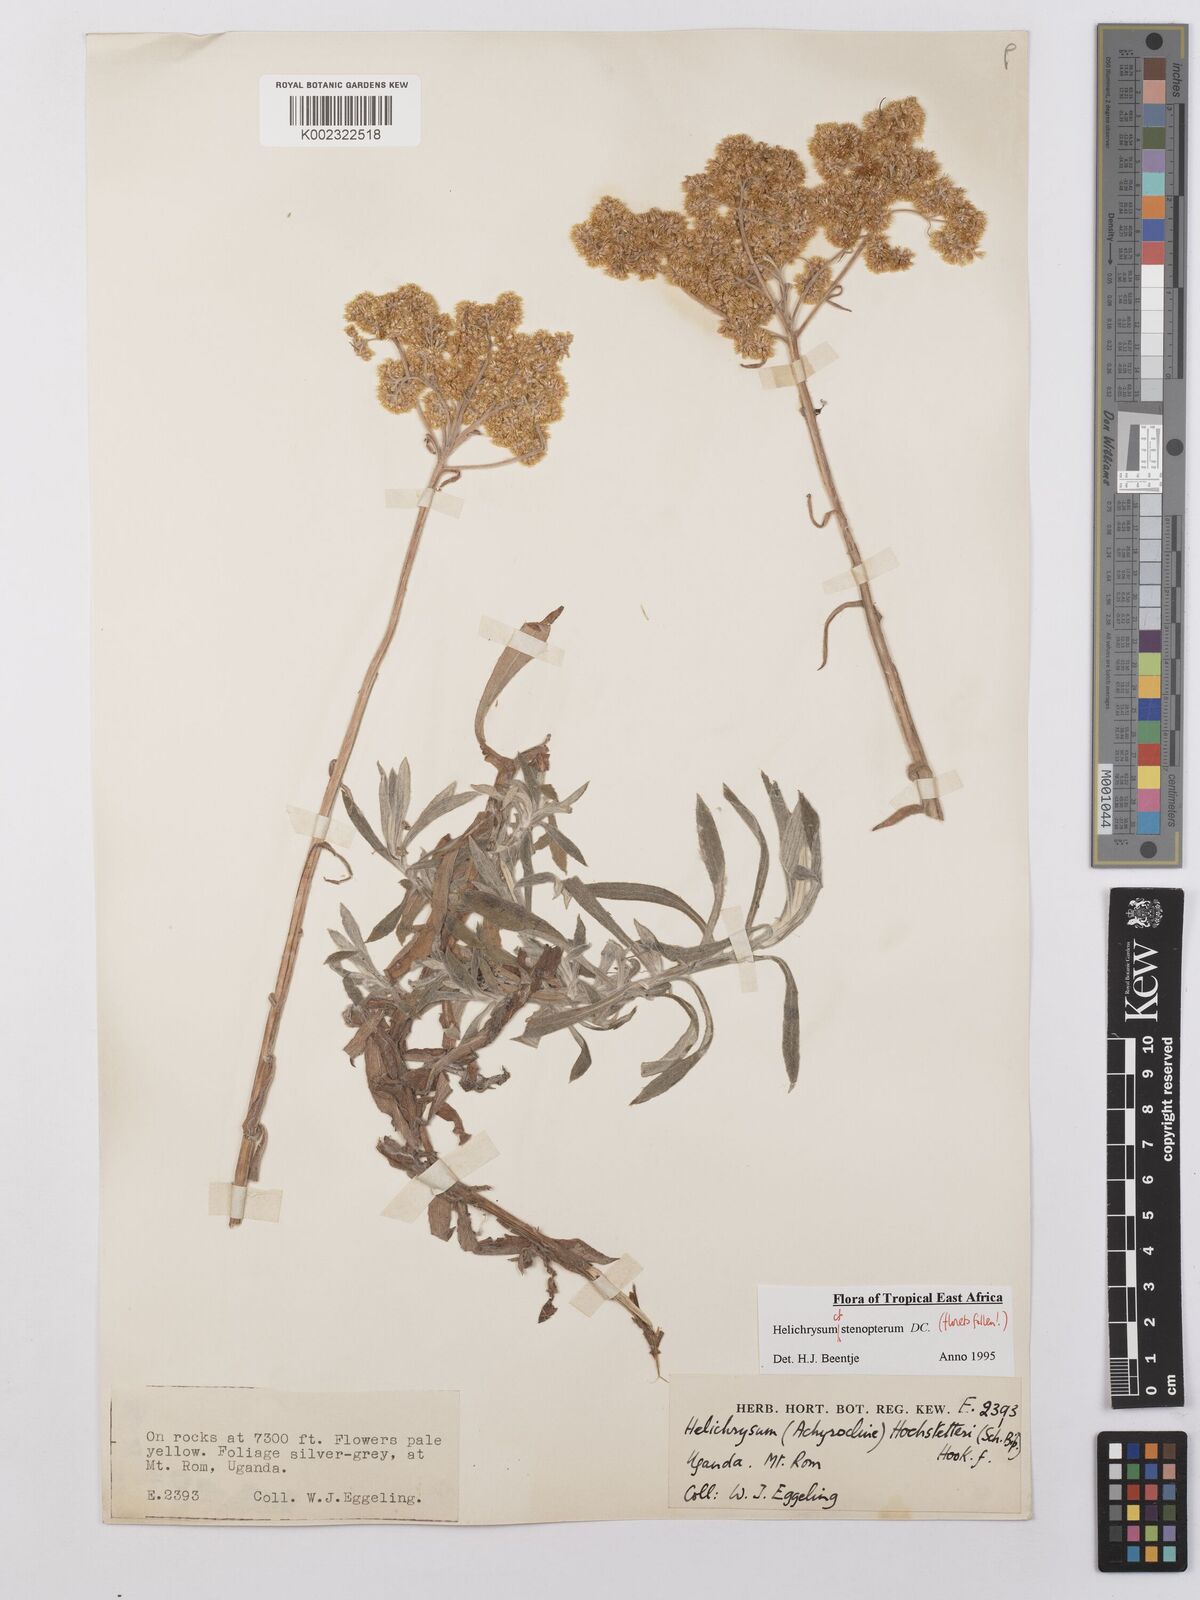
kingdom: Plantae
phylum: Tracheophyta
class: Magnoliopsida
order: Asterales
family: Asteraceae
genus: Helichrysum
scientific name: Helichrysum stenopterum
